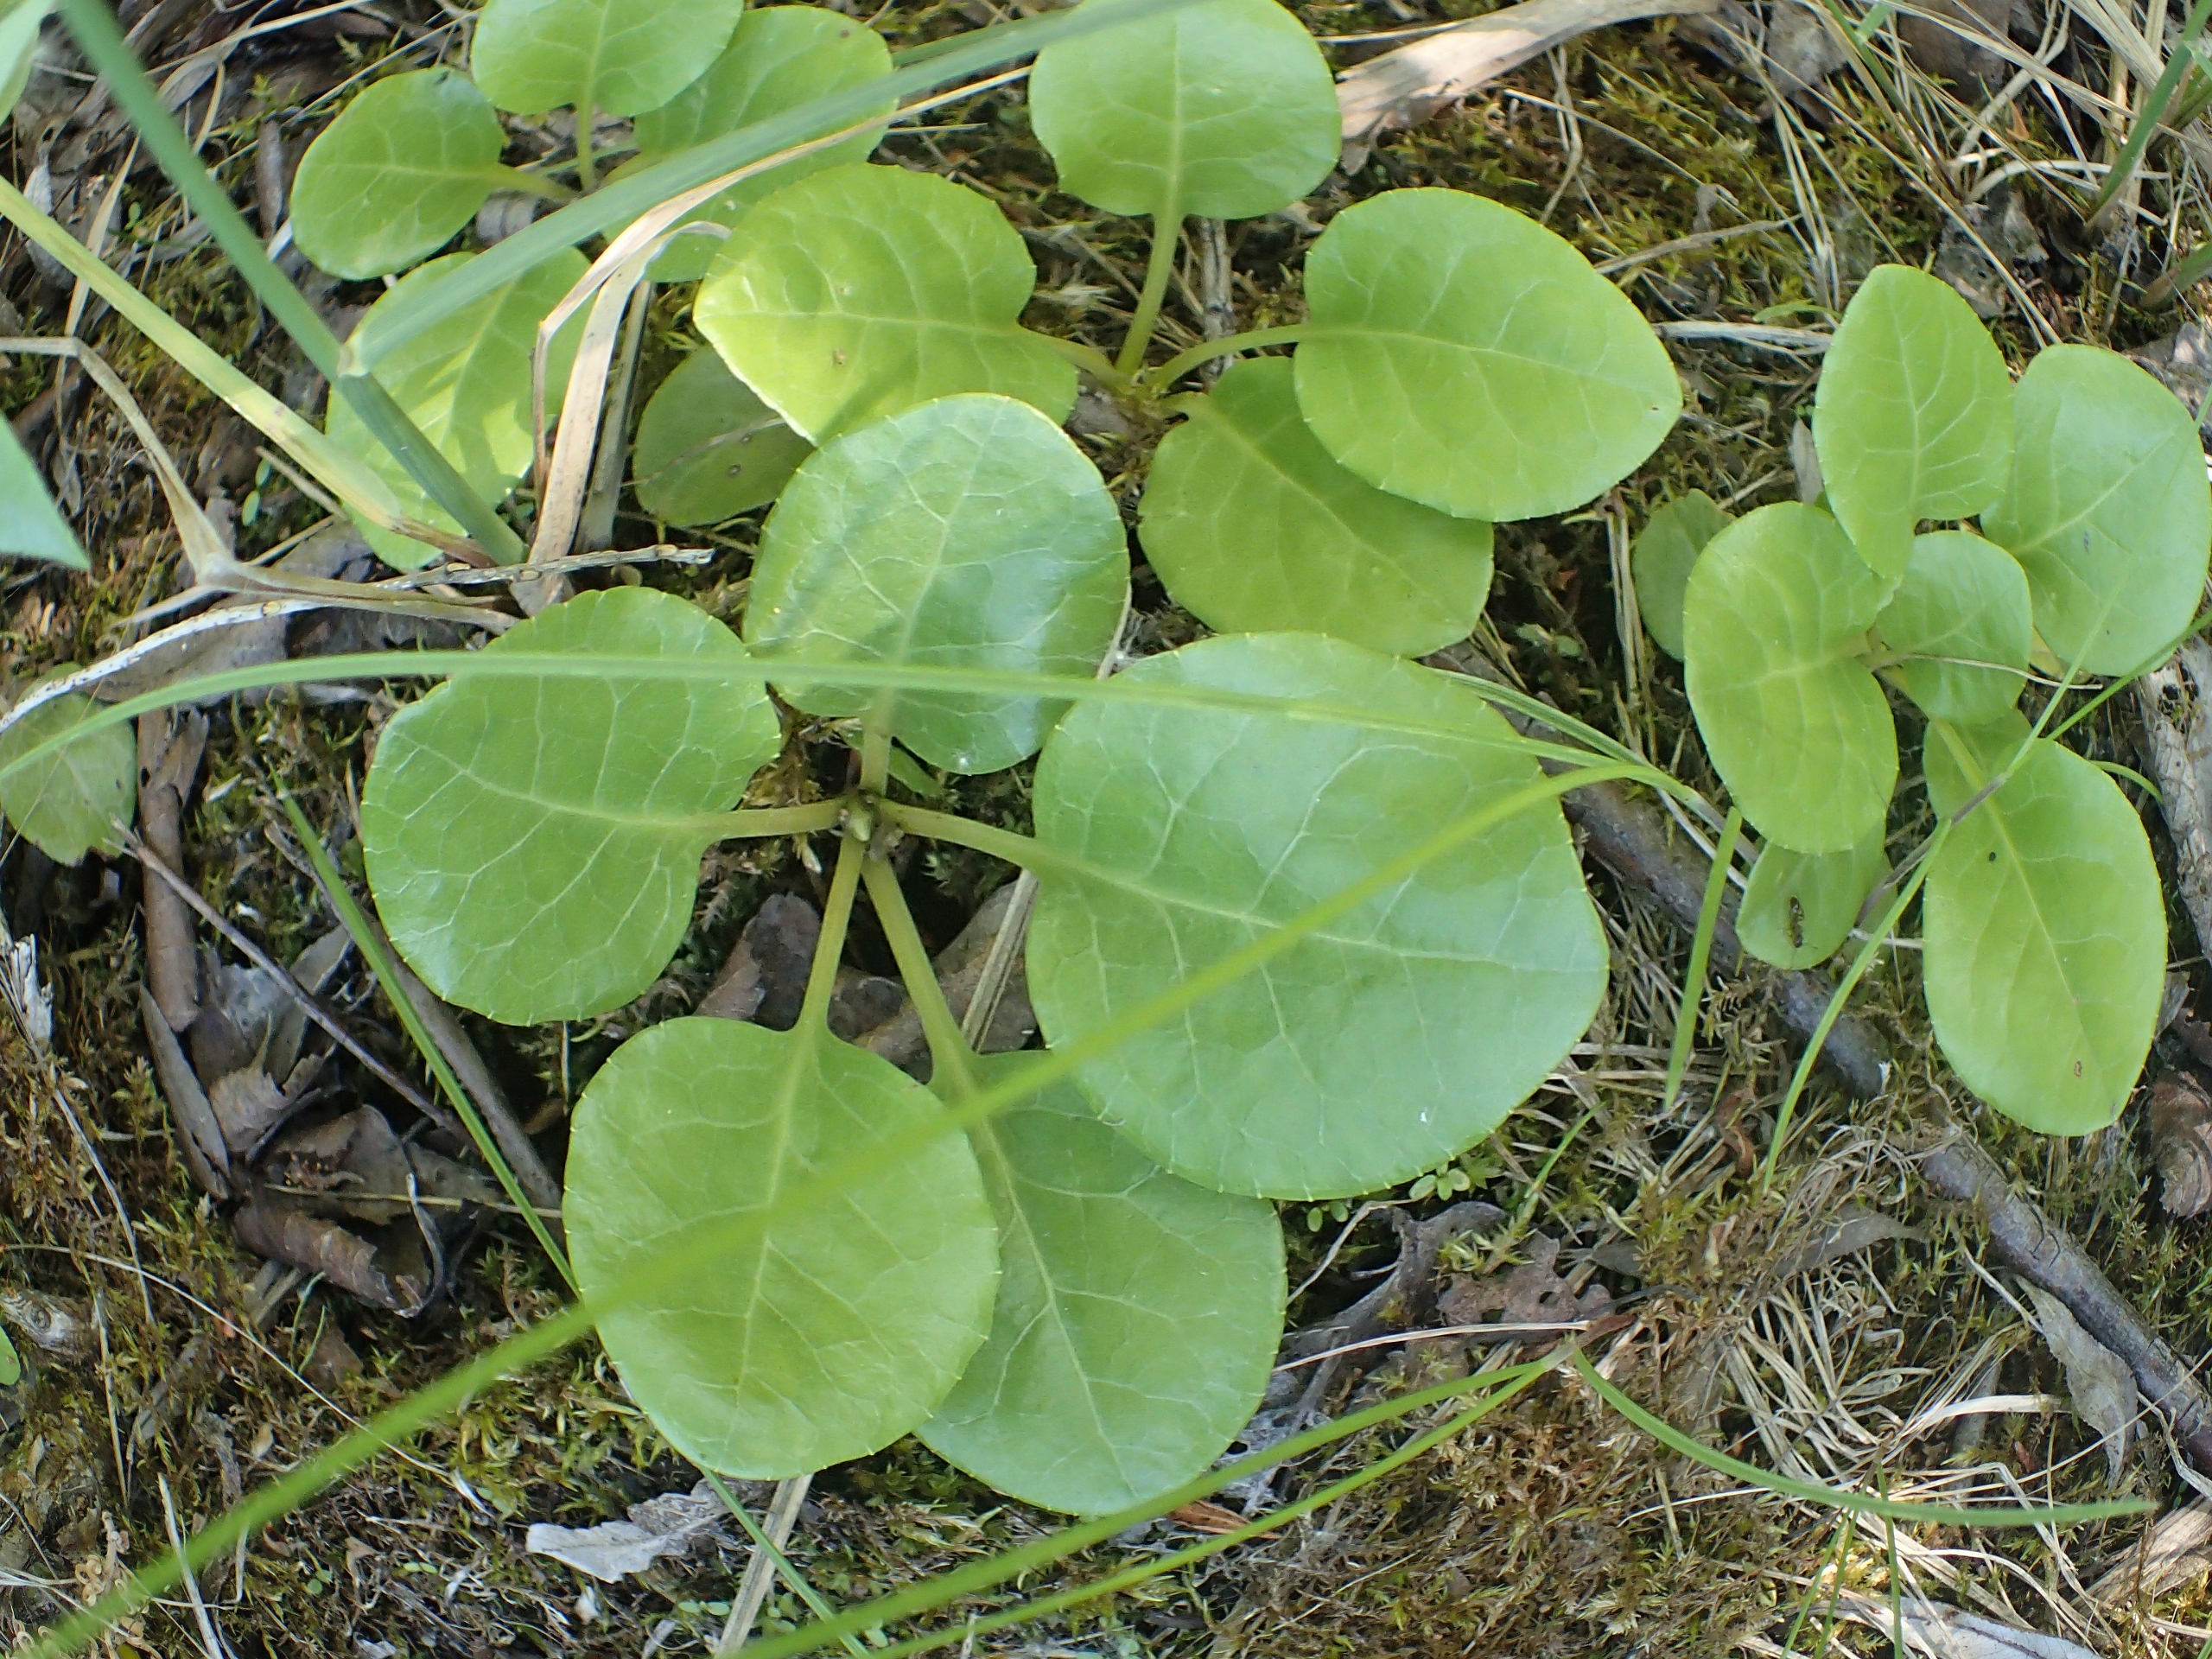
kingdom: Plantae
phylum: Tracheophyta
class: Magnoliopsida
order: Ericales
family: Ericaceae
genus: Pyrola
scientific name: Pyrola rotundifolia
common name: Mose-vintergrøn
